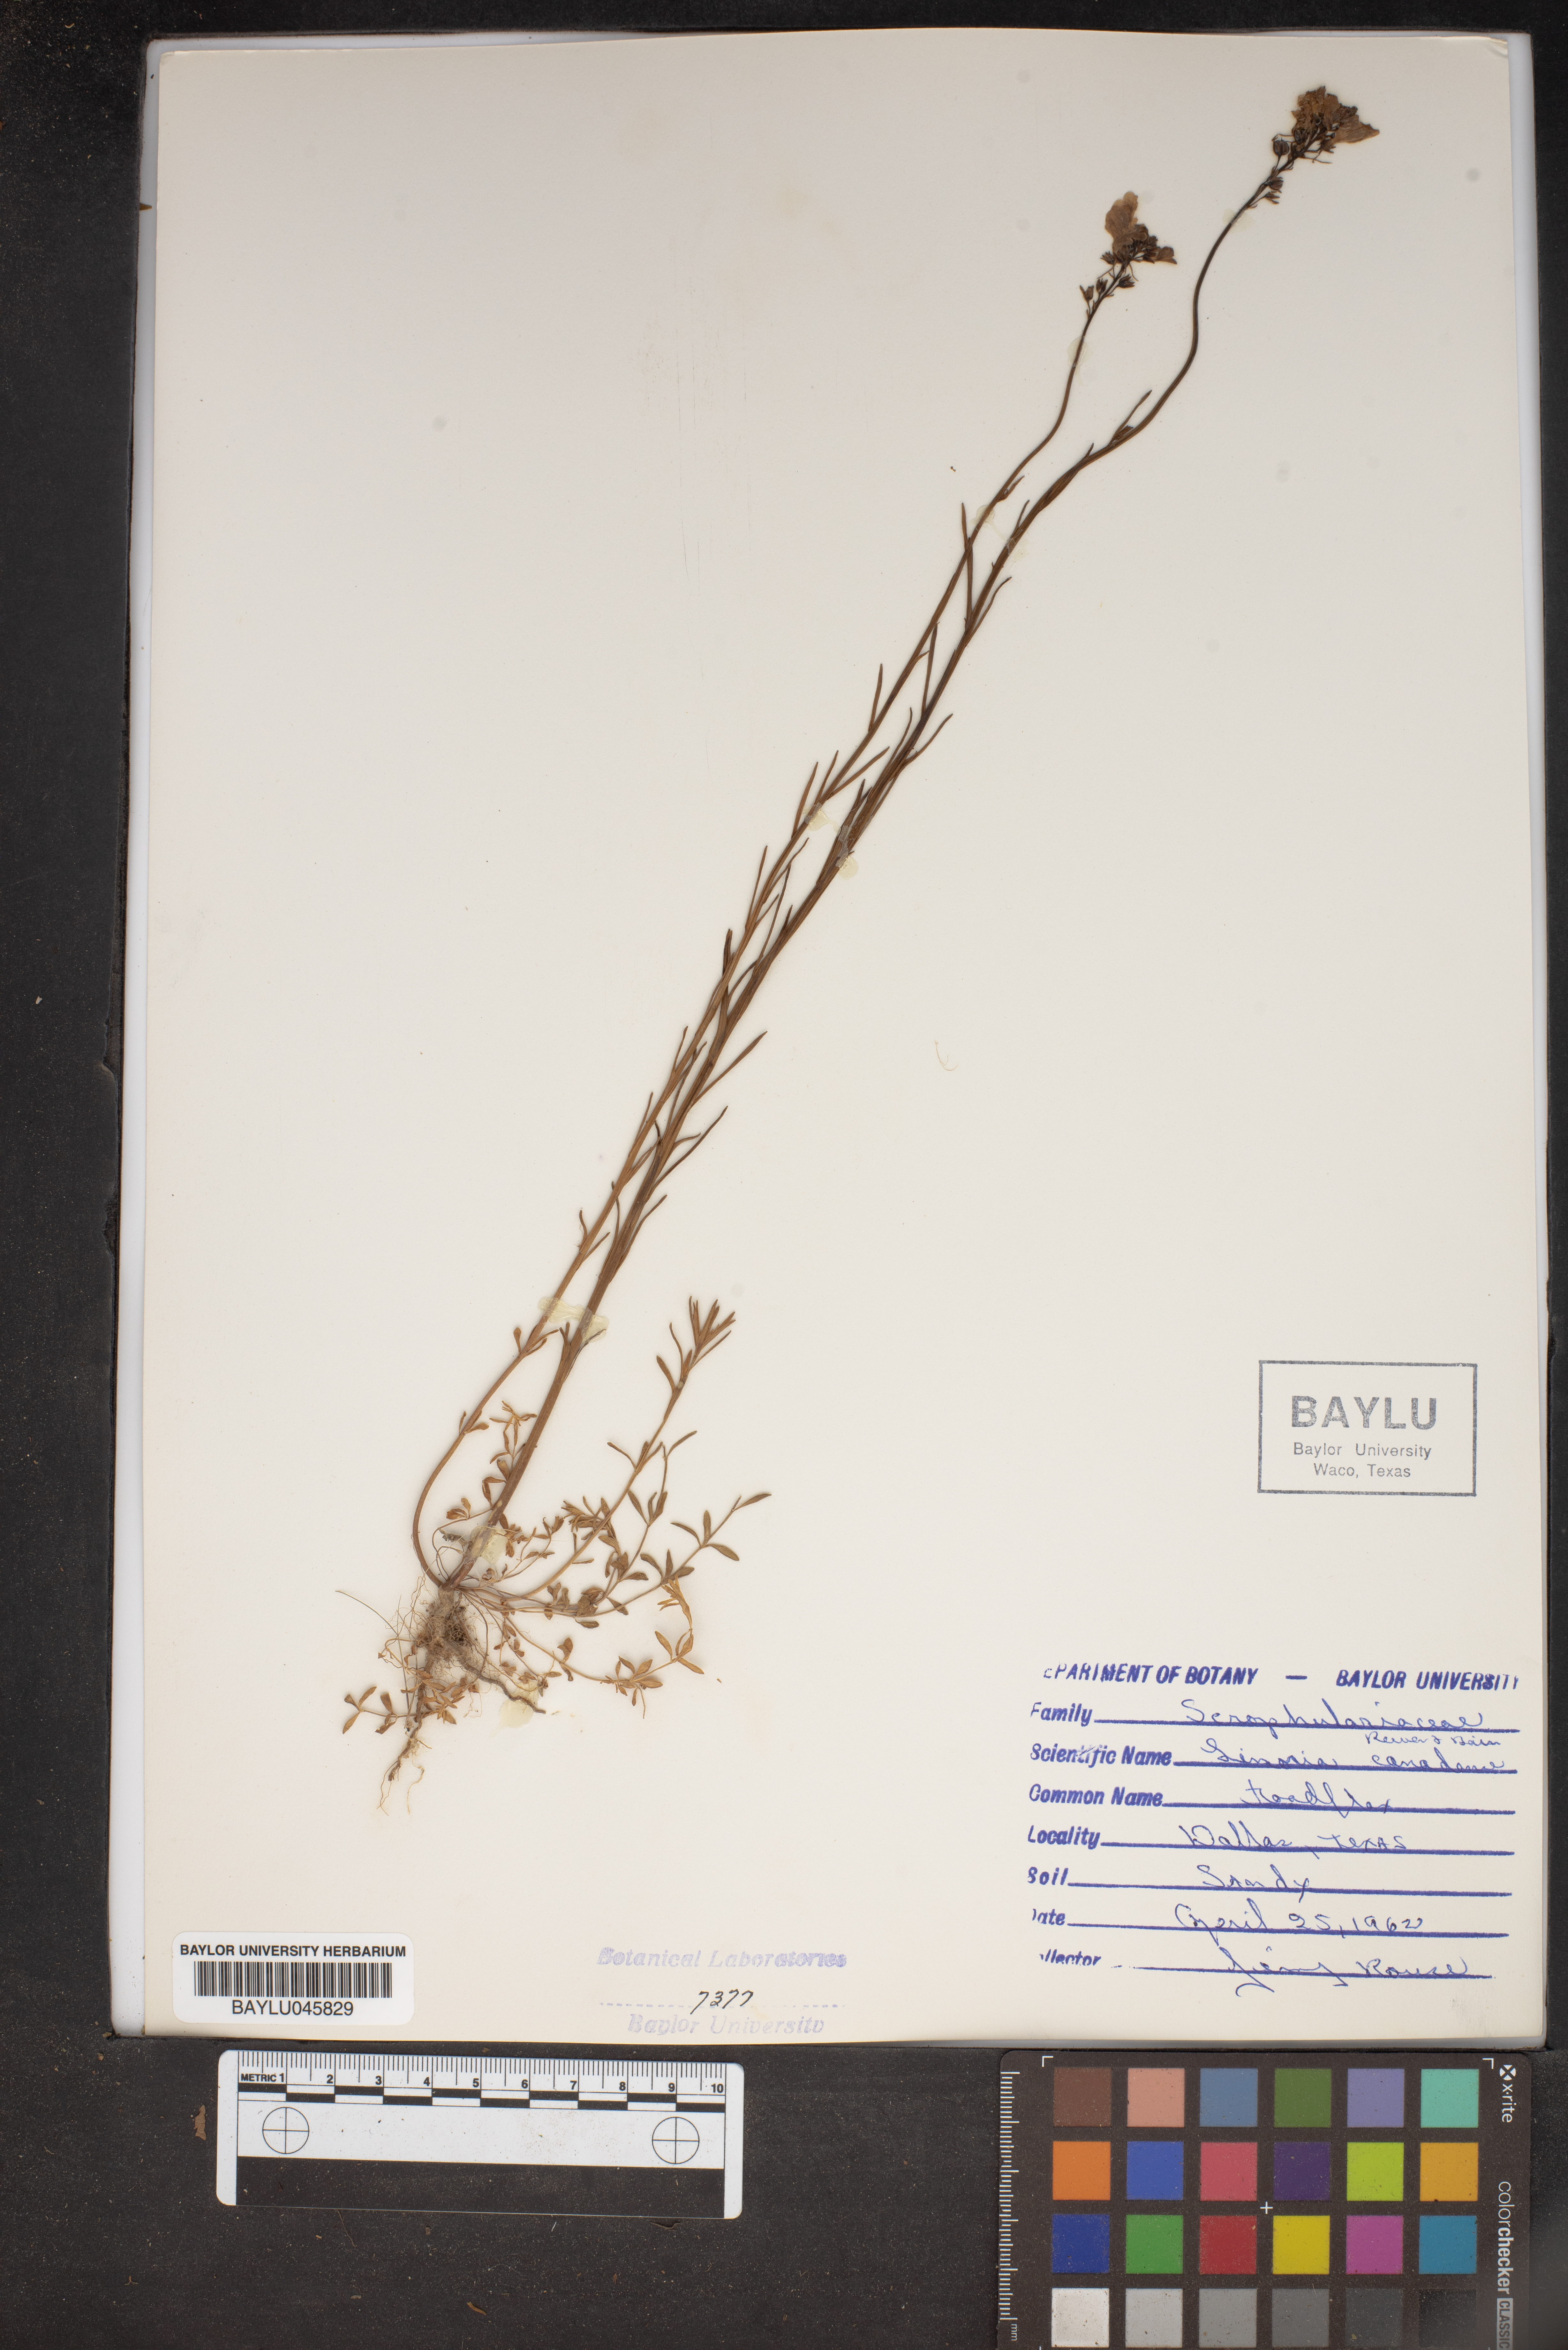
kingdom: Plantae
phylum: Tracheophyta
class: Magnoliopsida
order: Lamiales
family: Plantaginaceae
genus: Nuttallanthus
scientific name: Nuttallanthus canadensis
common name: Blue toadflax
